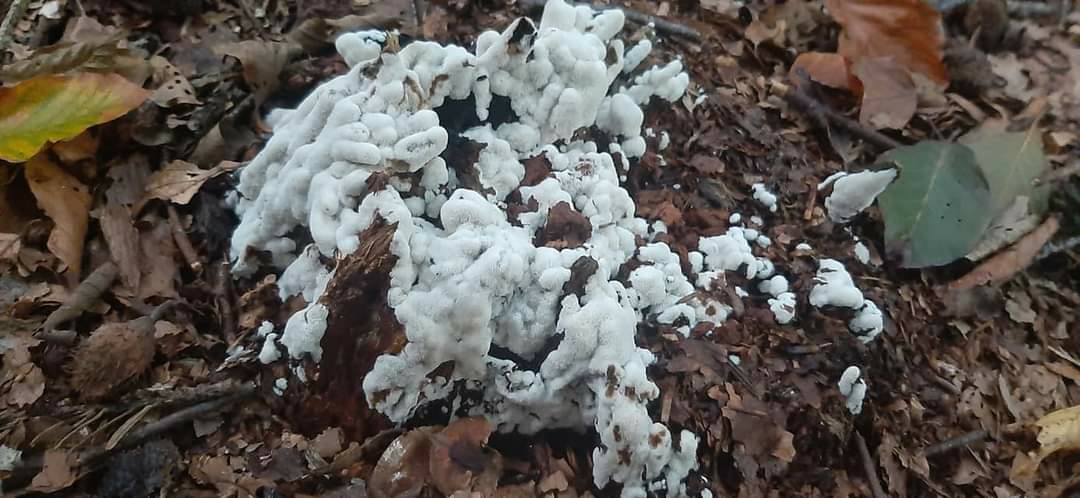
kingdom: Fungi
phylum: Basidiomycota
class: Agaricomycetes
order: Polyporales
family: Meruliaceae
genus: Physisporinus
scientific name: Physisporinus vitreus
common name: mastesvamp
